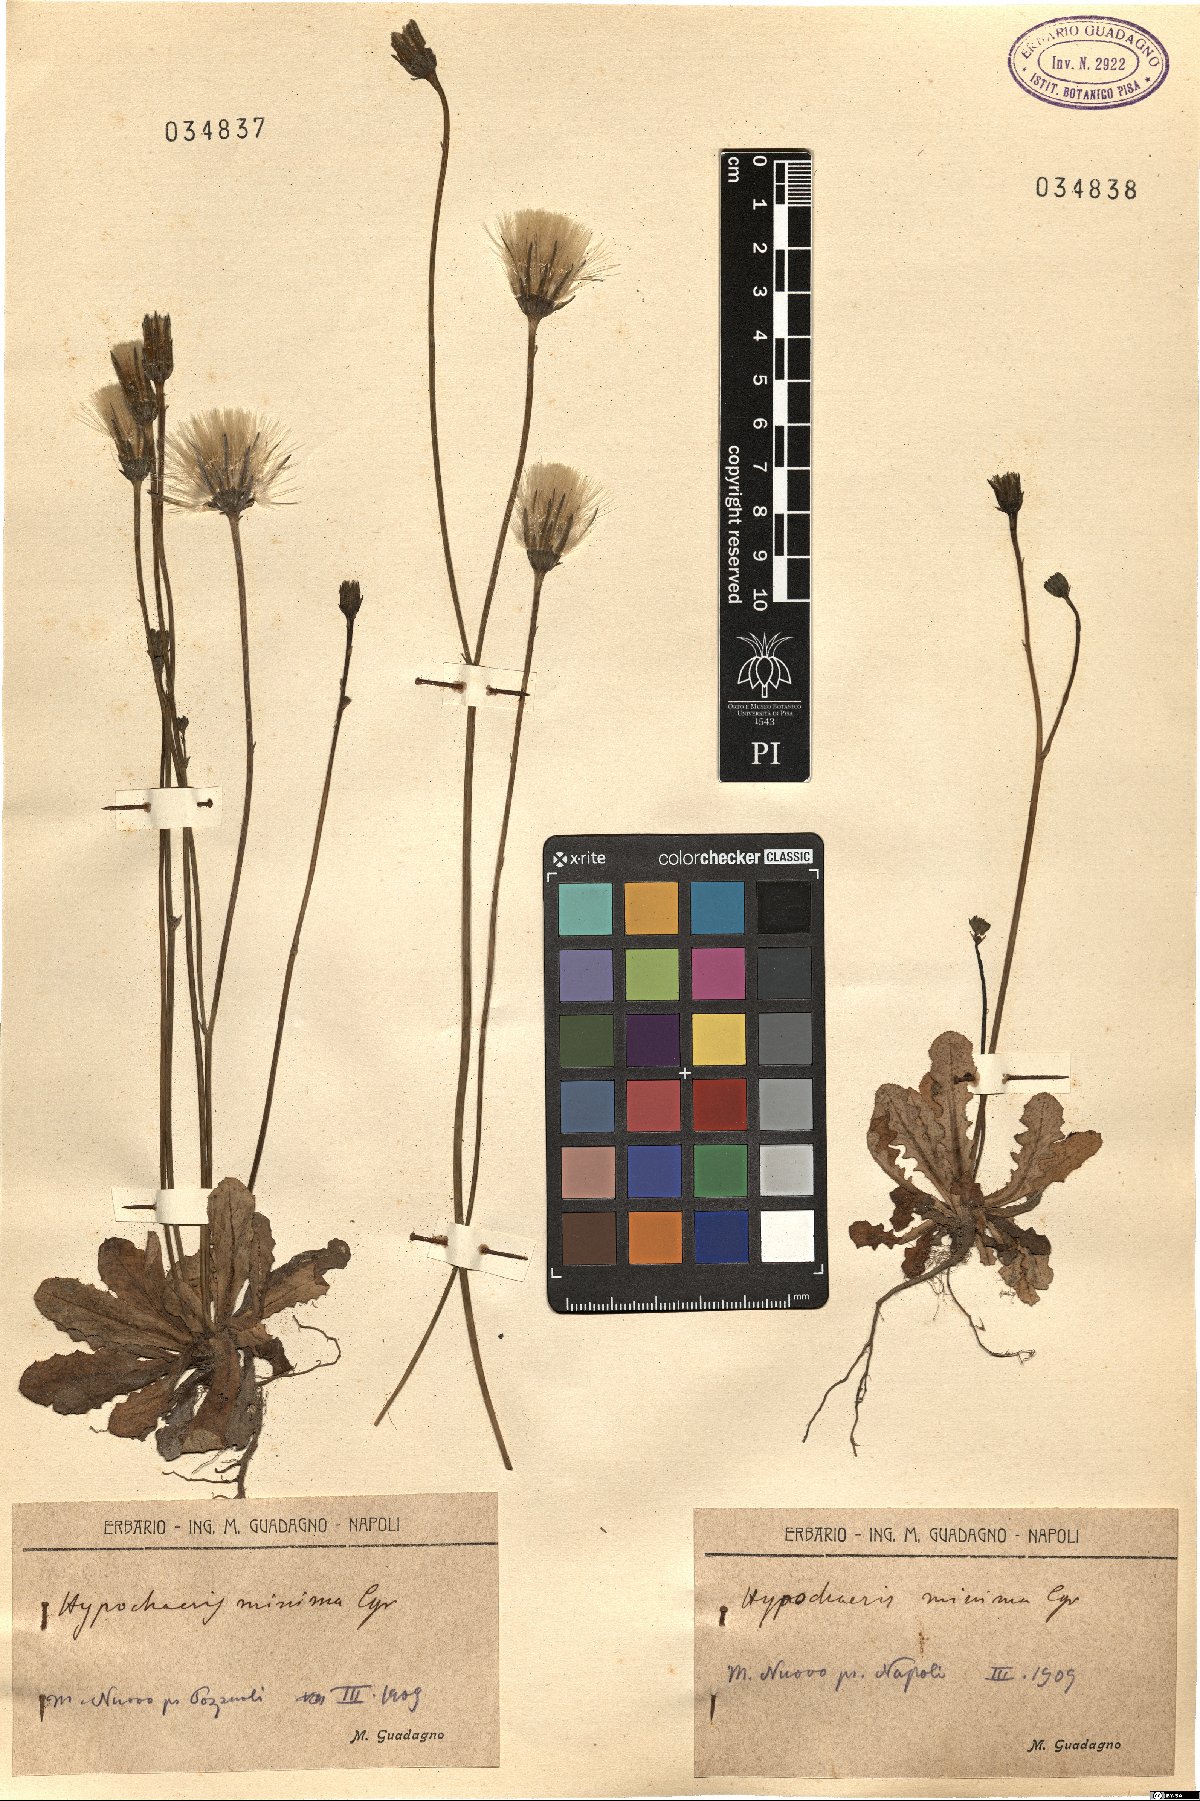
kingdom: Plantae
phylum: Tracheophyta
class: Magnoliopsida
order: Asterales
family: Asteraceae
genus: Hypochaeris
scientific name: Hypochaeris
